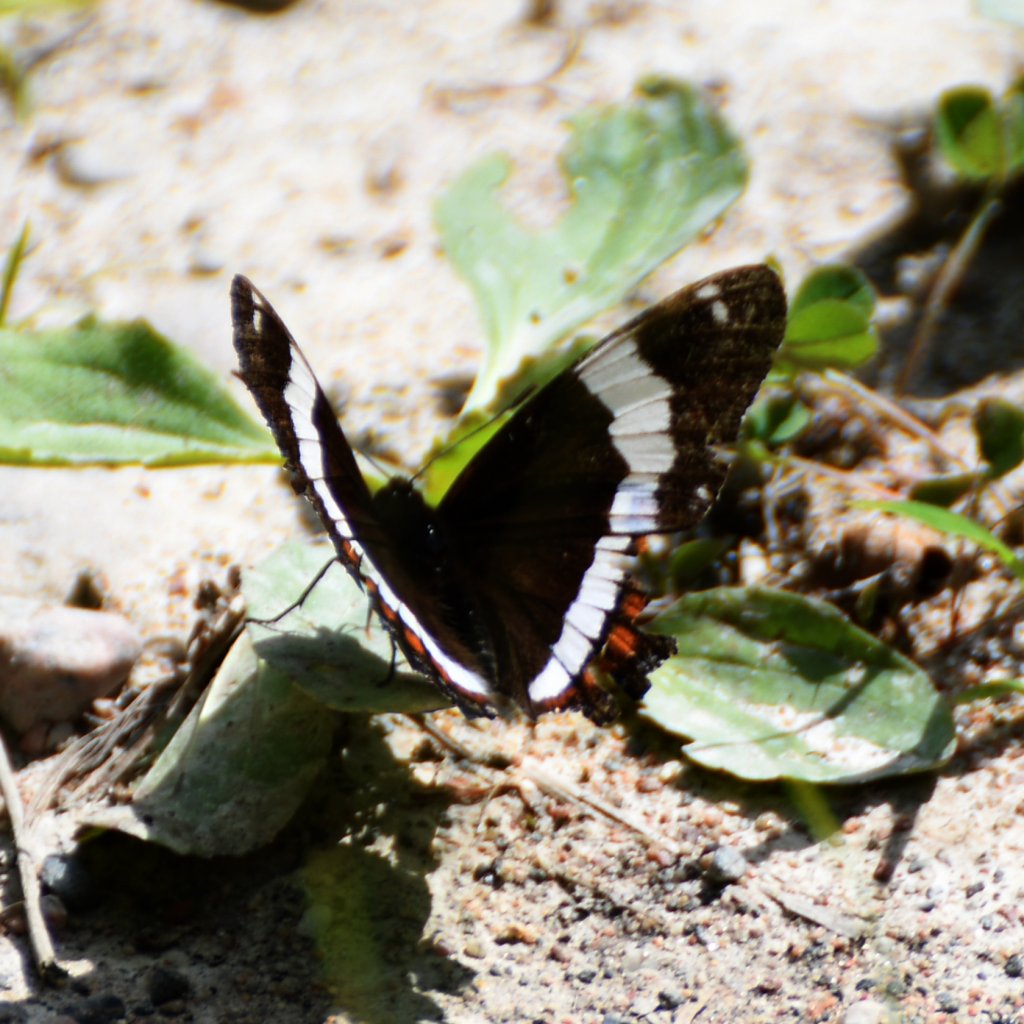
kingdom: Animalia
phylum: Arthropoda
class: Insecta
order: Lepidoptera
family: Nymphalidae
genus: Limenitis
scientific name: Limenitis arthemis
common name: Red-spotted Admiral
